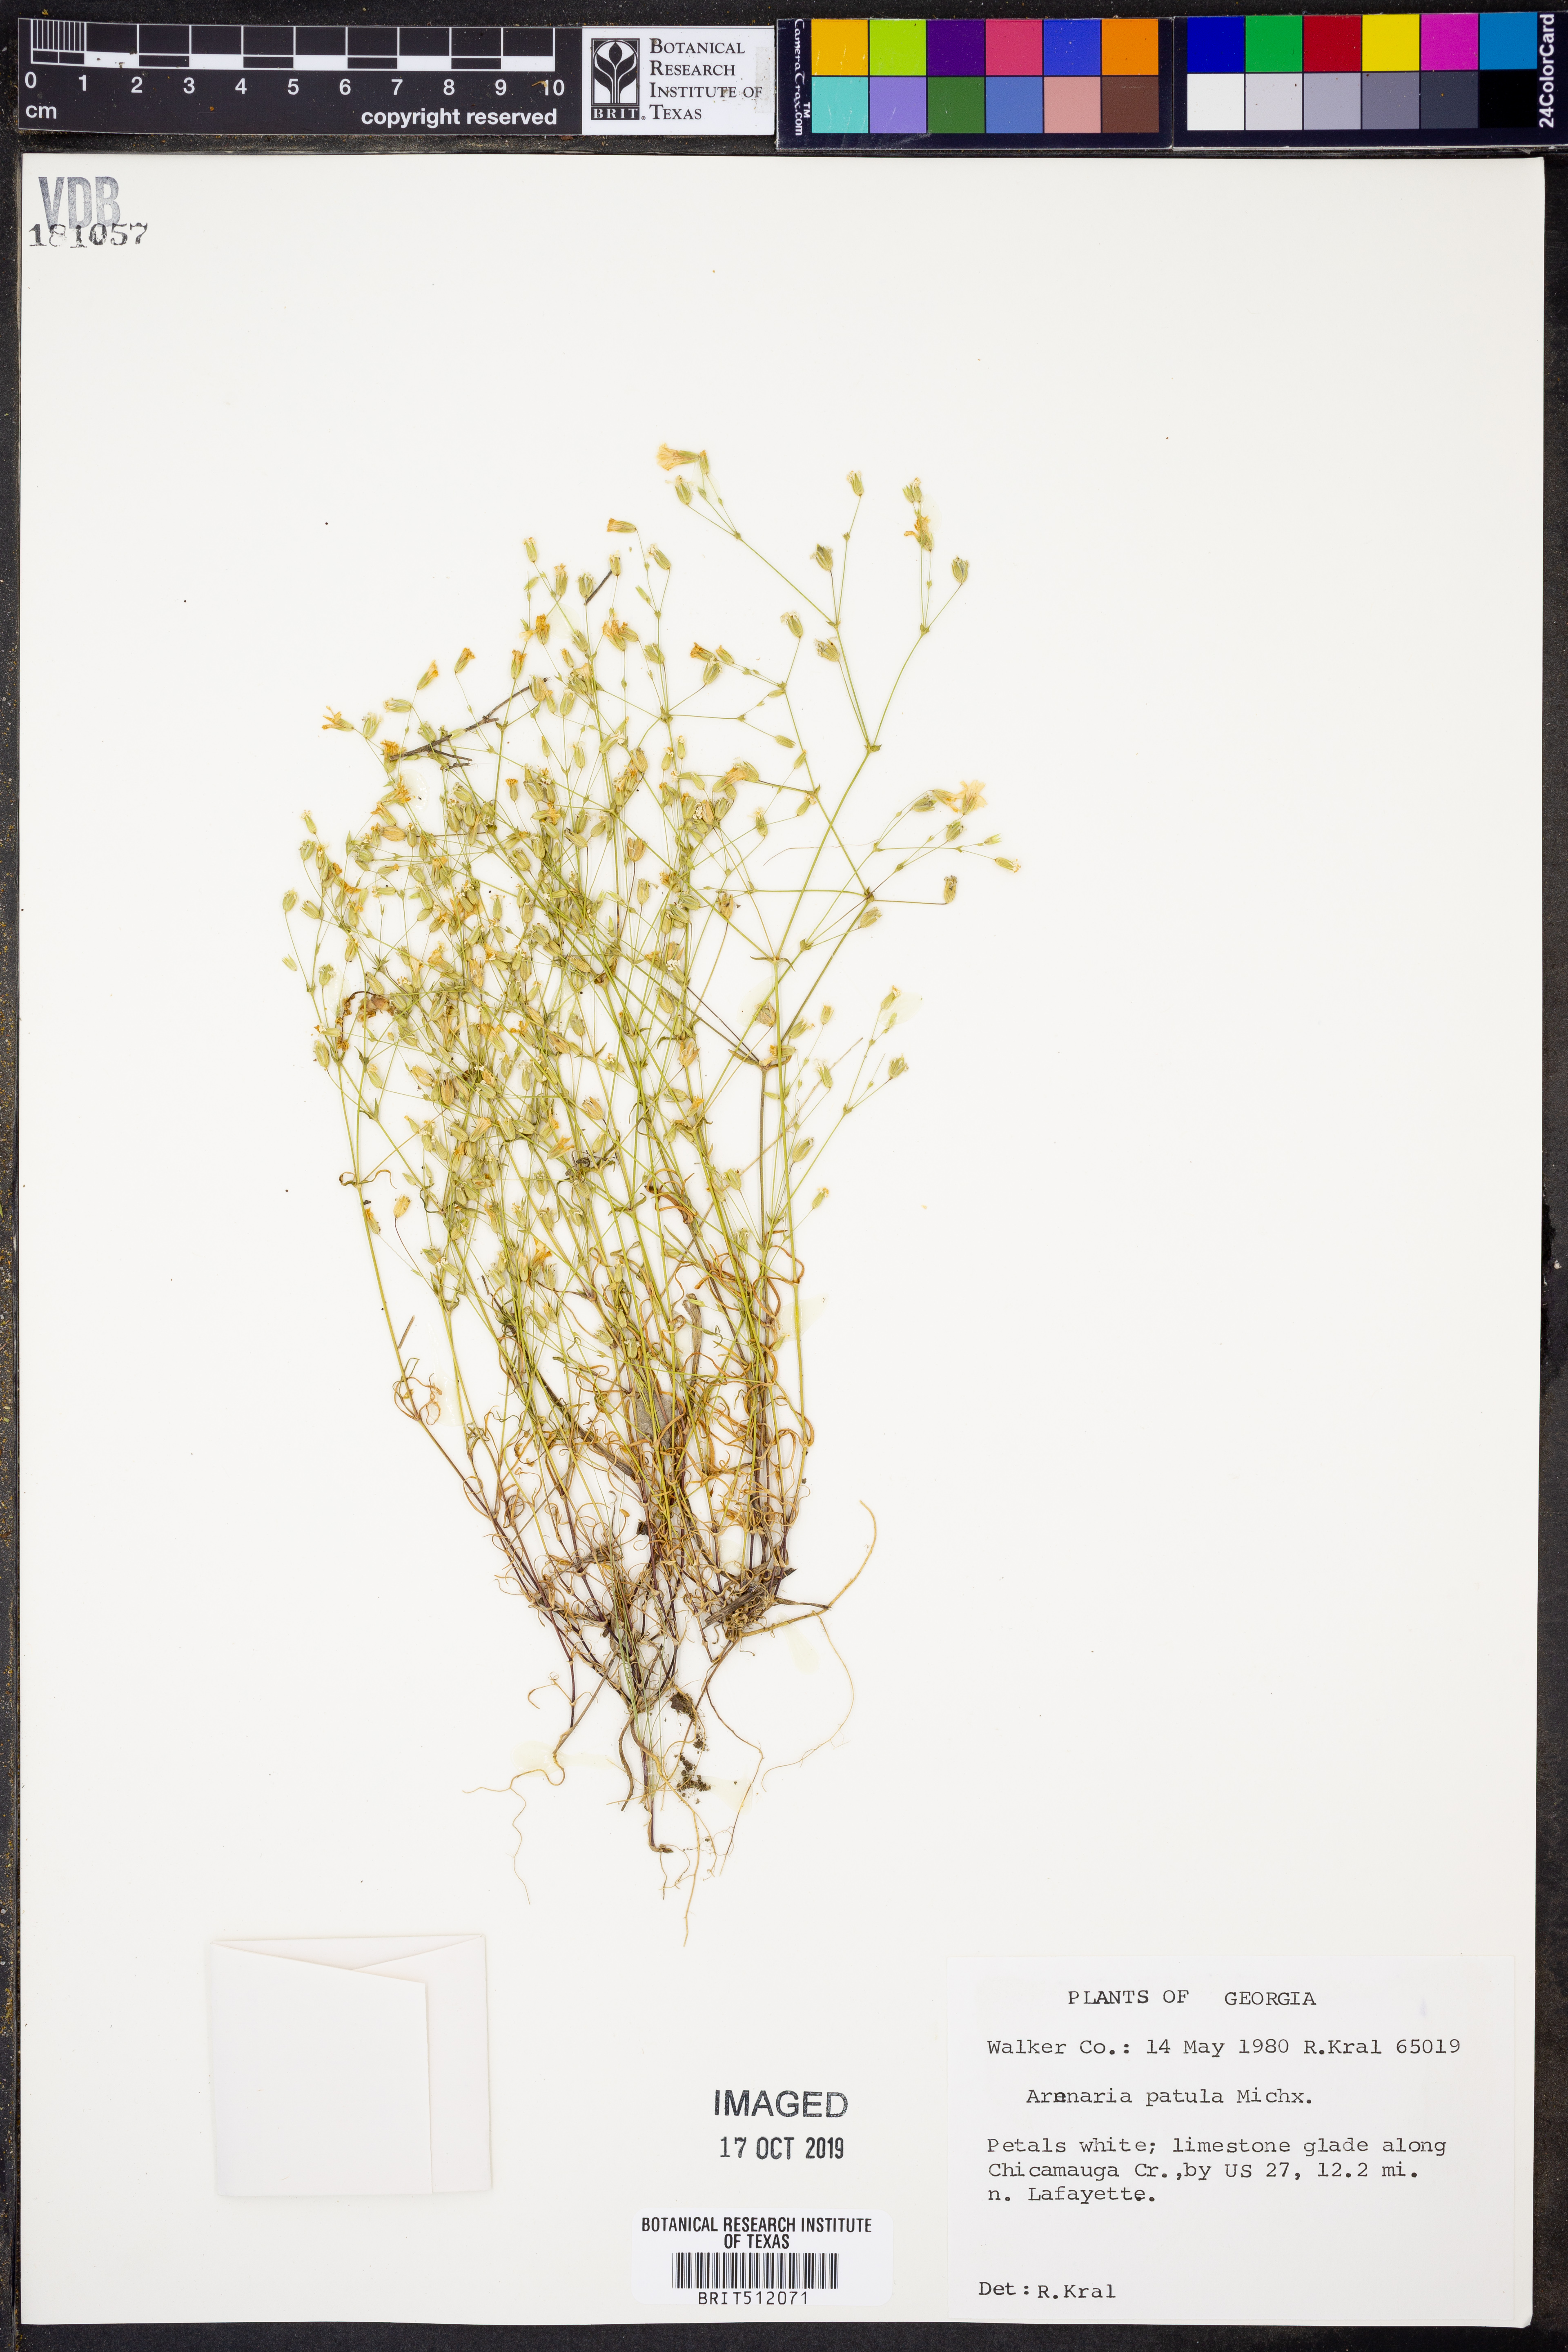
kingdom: Plantae
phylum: Tracheophyta
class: Magnoliopsida
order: Caryophyllales
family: Caryophyllaceae
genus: Mononeuria
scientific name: Mononeuria patula
